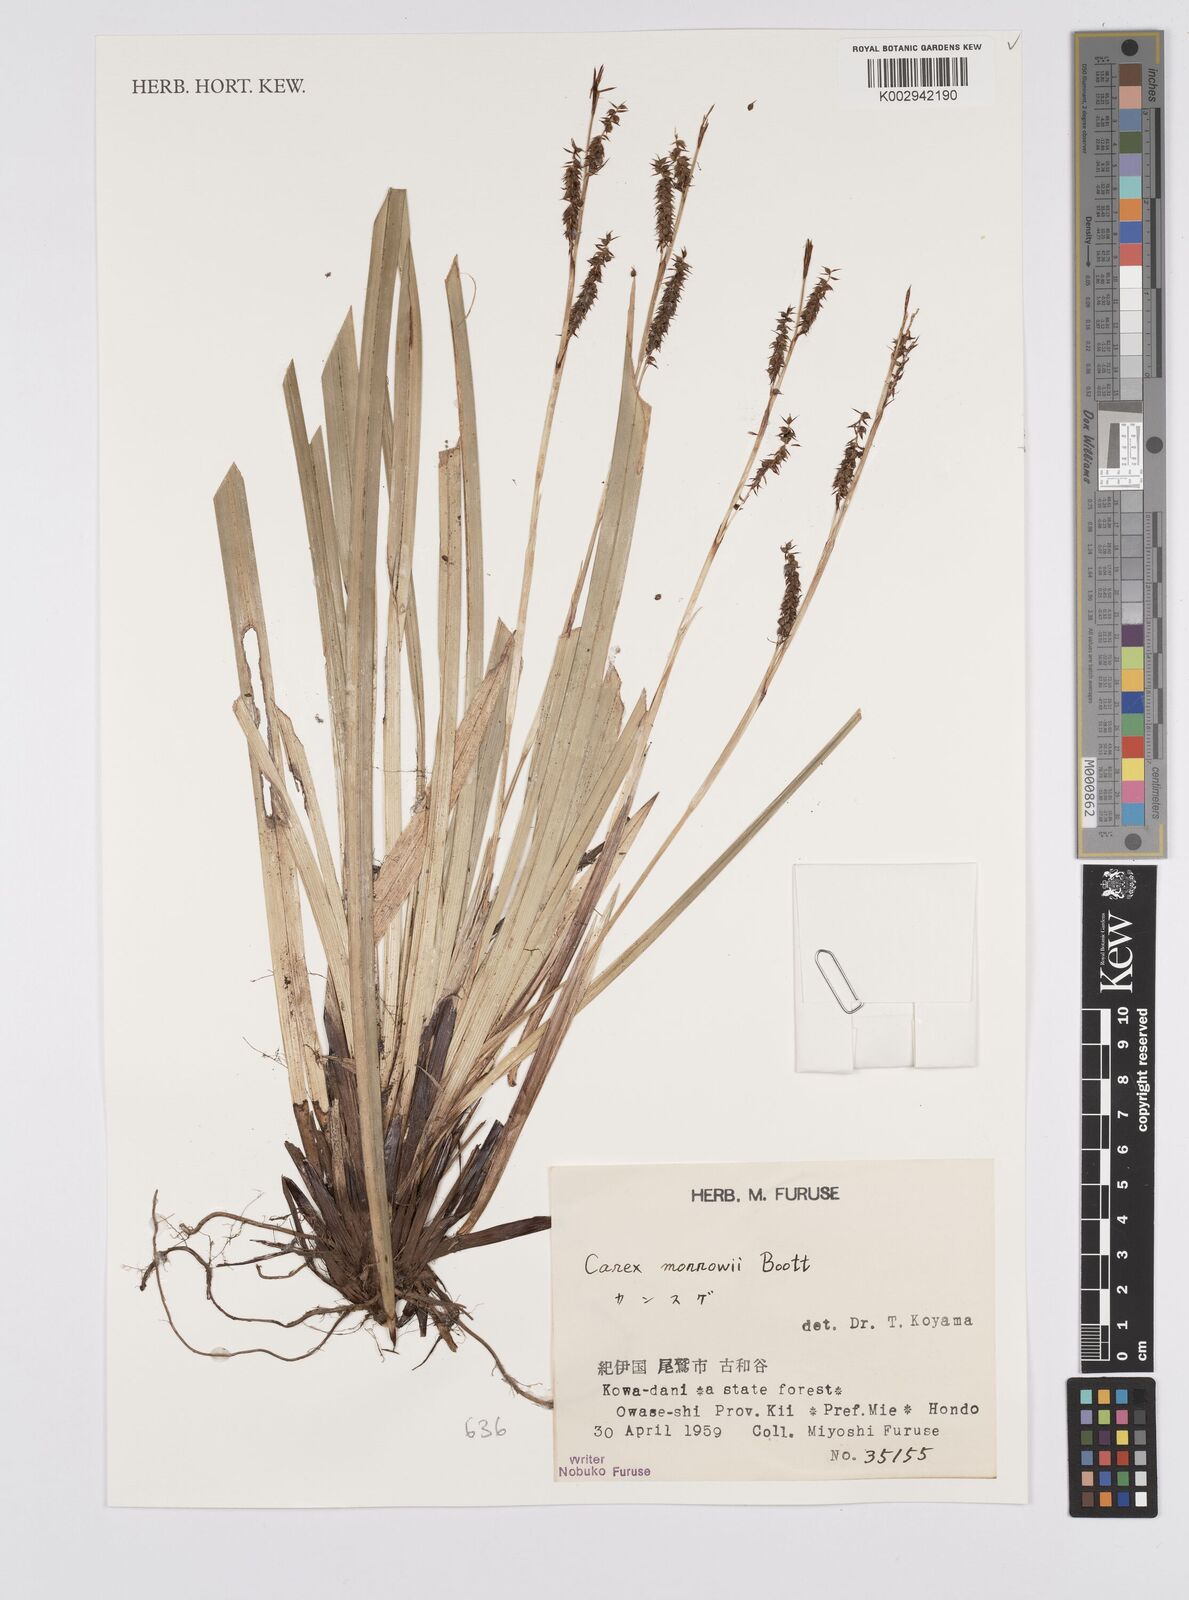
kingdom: Plantae
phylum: Tracheophyta
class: Liliopsida
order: Poales
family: Cyperaceae
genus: Carex
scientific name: Carex morrowii
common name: Japanese sedge
